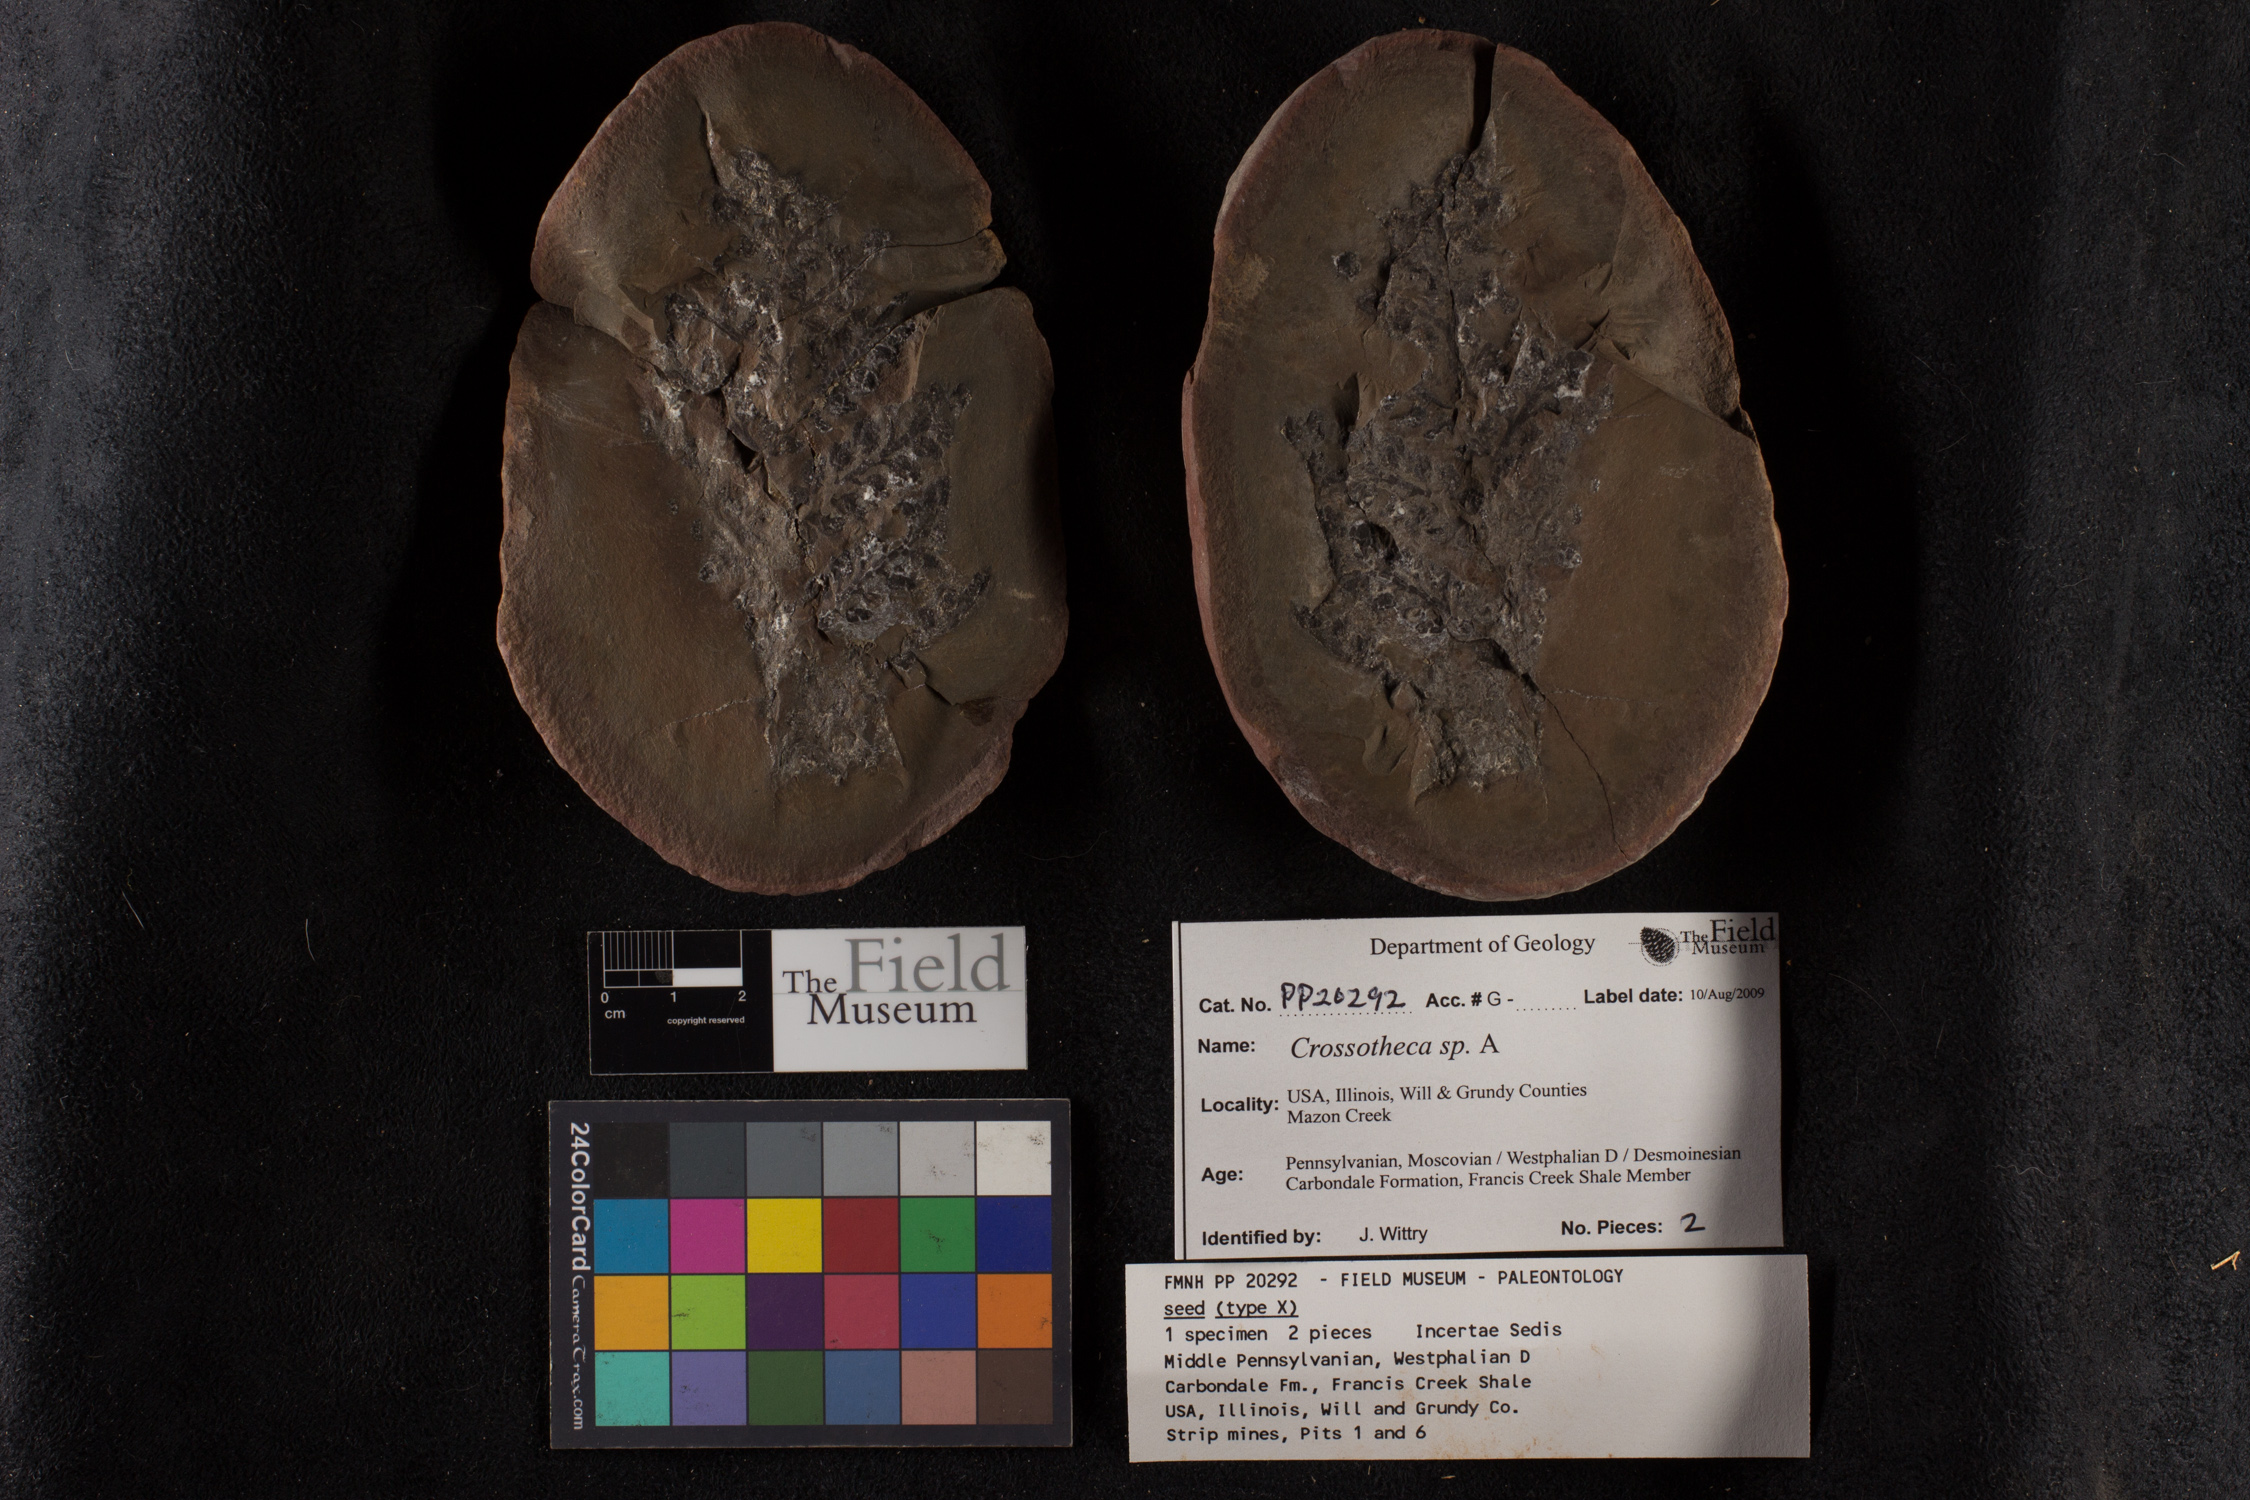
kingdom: Plantae
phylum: Tracheophyta
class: Polypodiopsida
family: Stauropteridaceae
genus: Crossotheca
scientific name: Crossotheca
